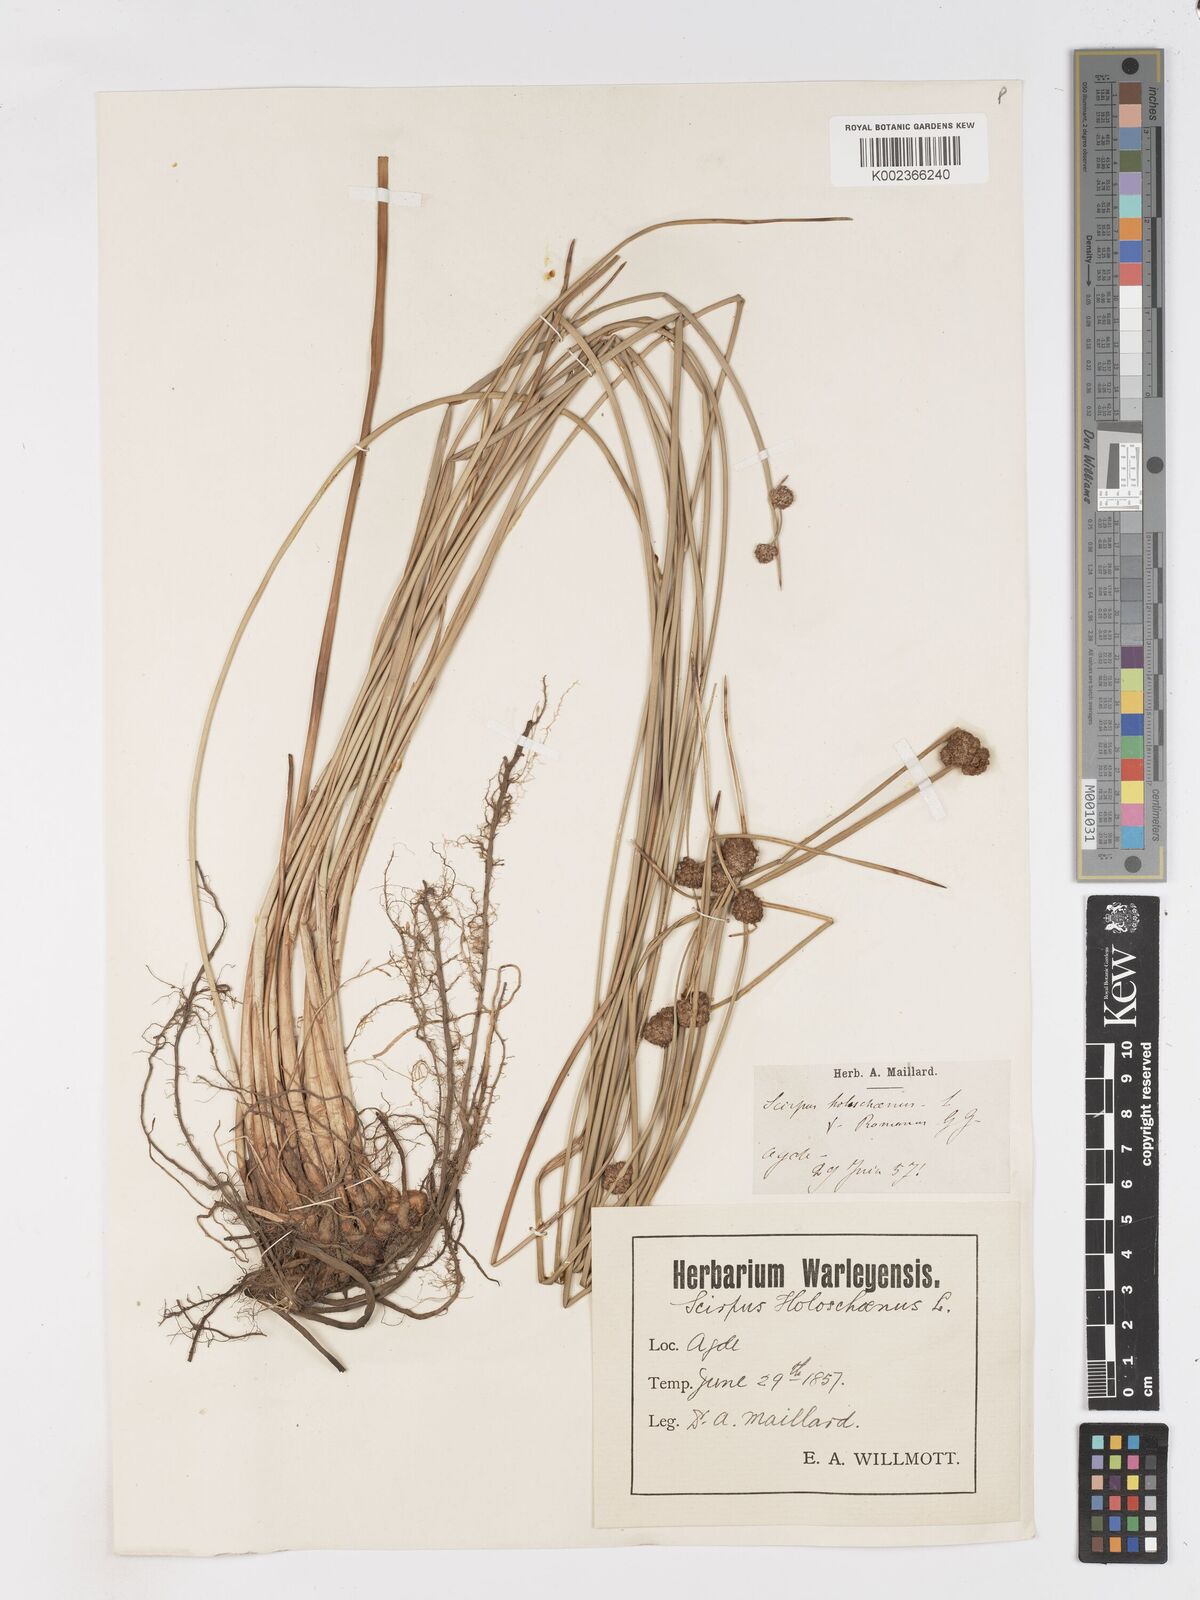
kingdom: Plantae
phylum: Tracheophyta
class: Liliopsida
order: Poales
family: Cyperaceae
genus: Scirpoides
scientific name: Scirpoides holoschoenus
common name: Round-headed club-rush
